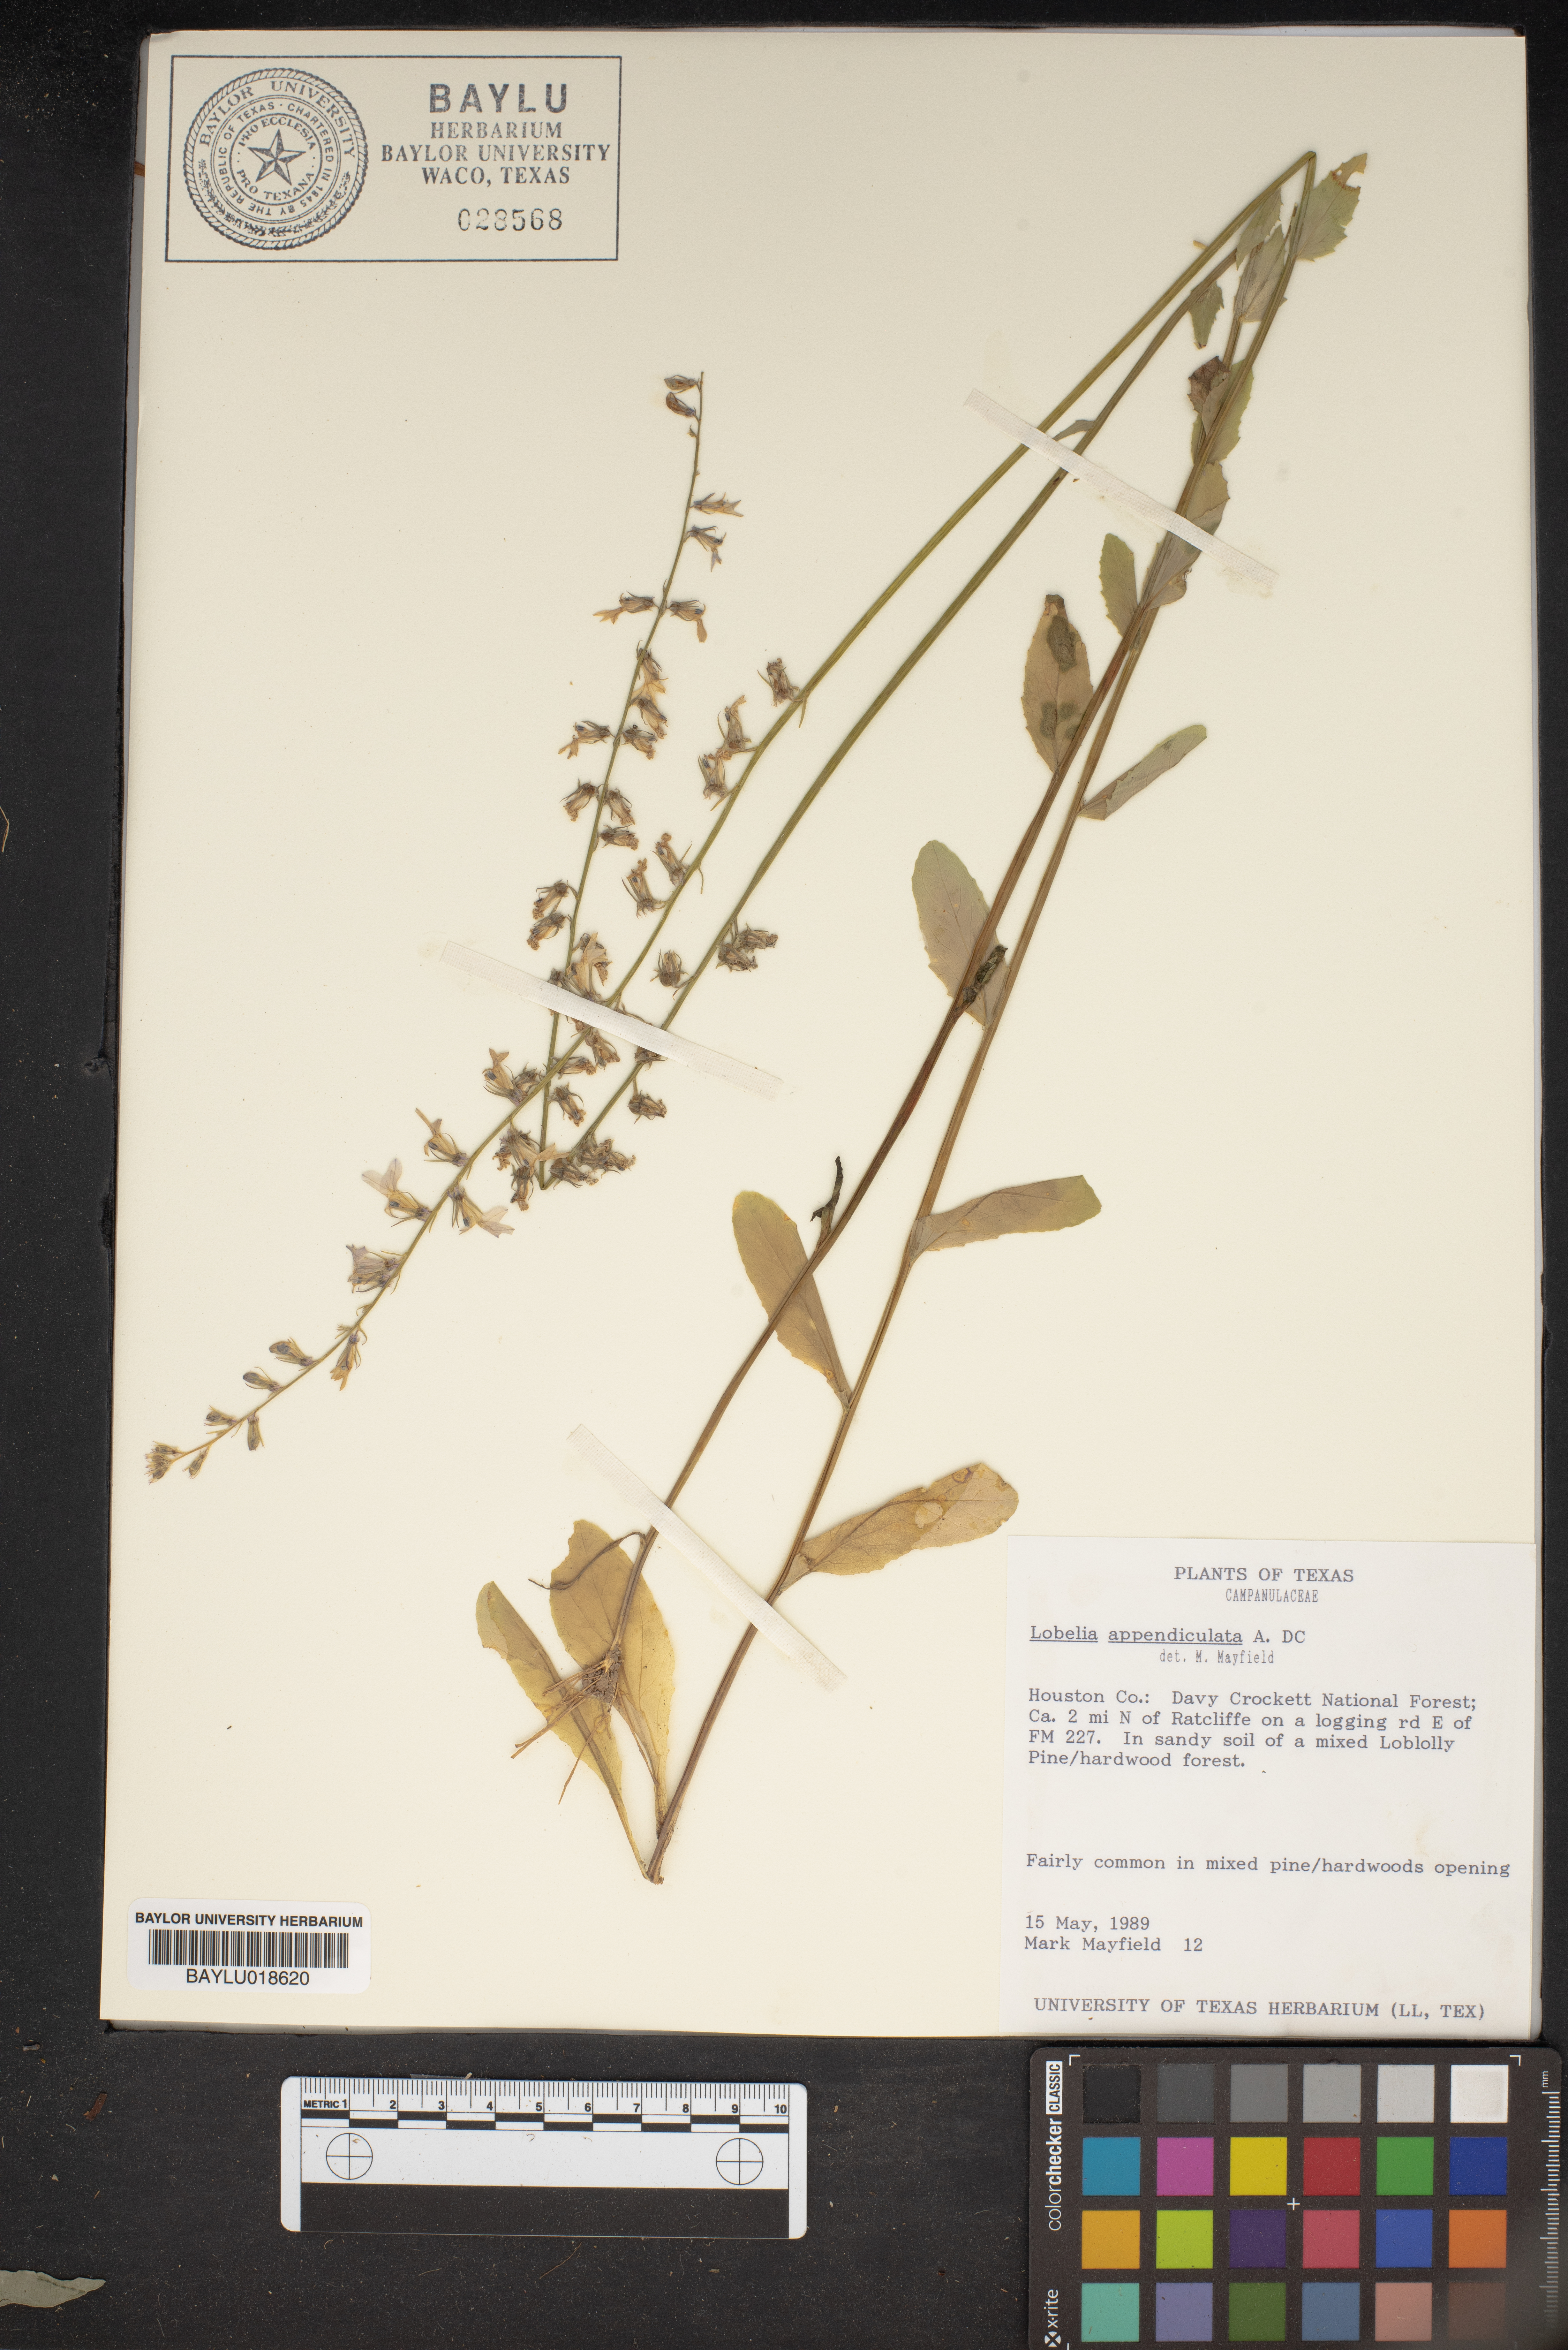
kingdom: Plantae
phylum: Tracheophyta
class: Magnoliopsida
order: Asterales
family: Campanulaceae
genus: Lobelia
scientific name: Lobelia appendiculata
